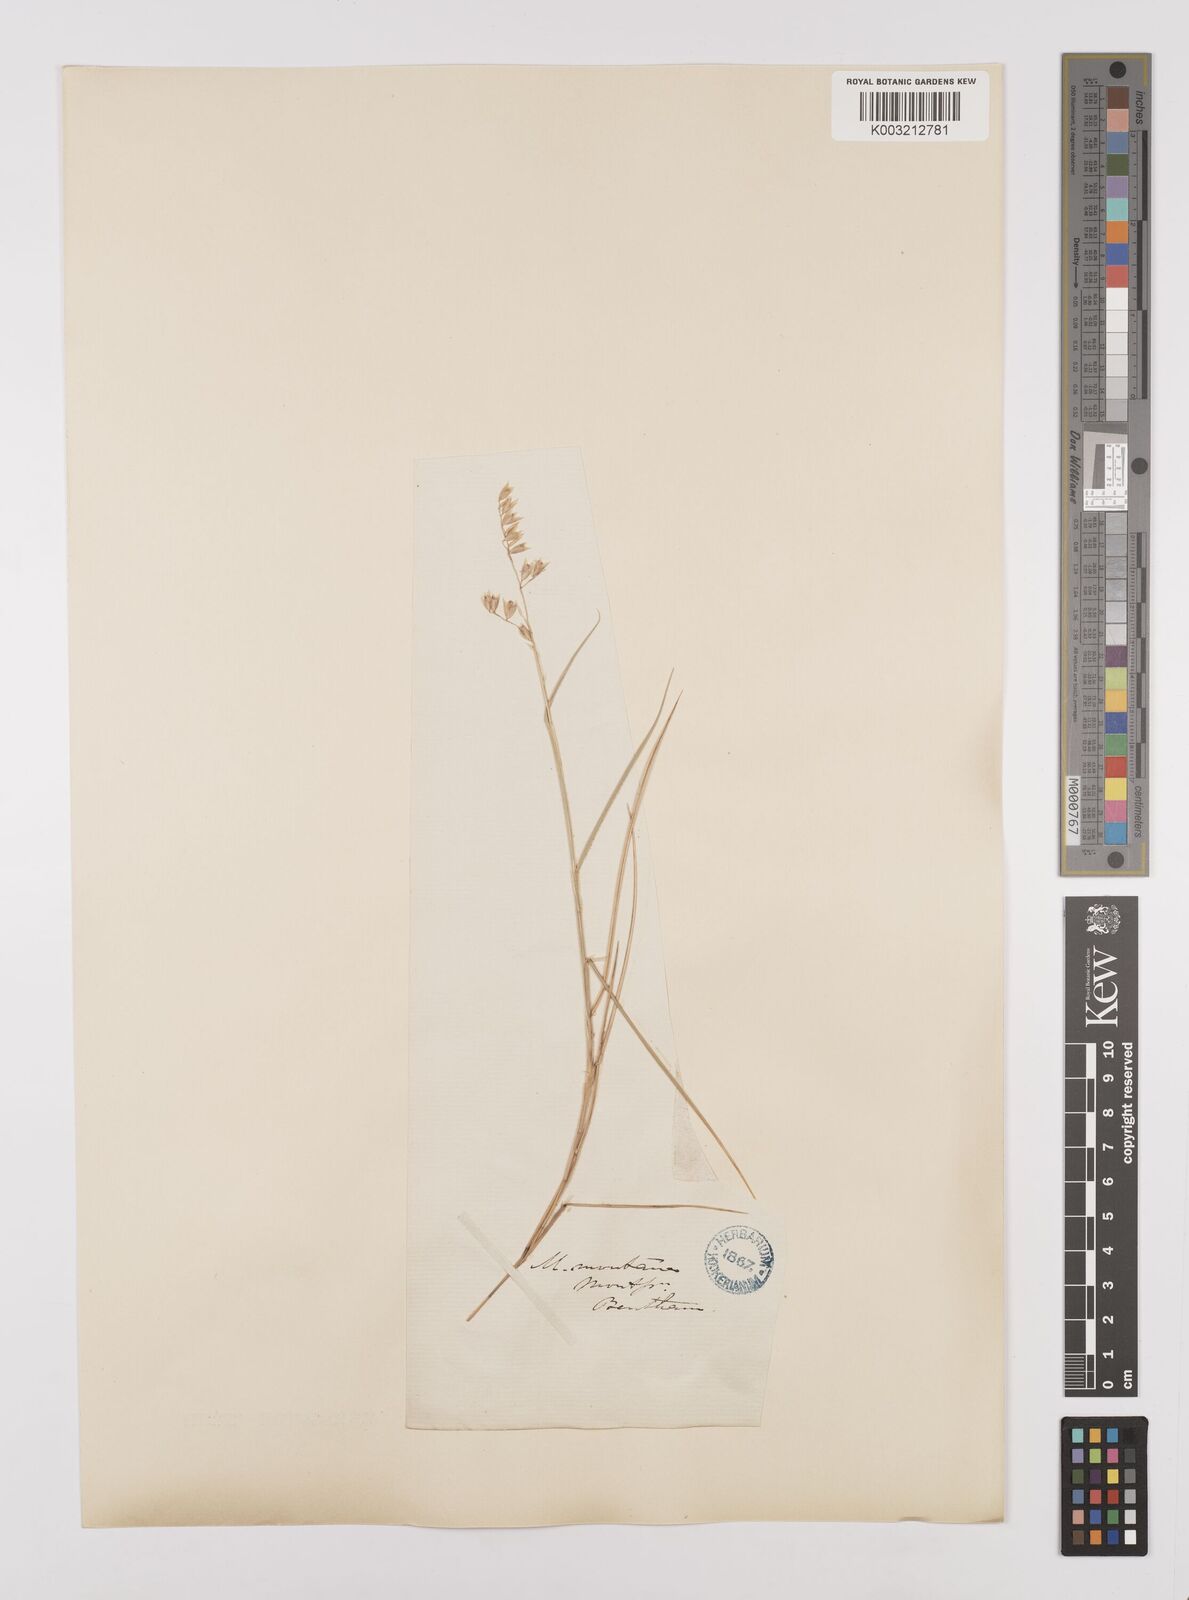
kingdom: Plantae
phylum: Tracheophyta
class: Liliopsida
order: Poales
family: Poaceae
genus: Melica
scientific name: Melica minuta
